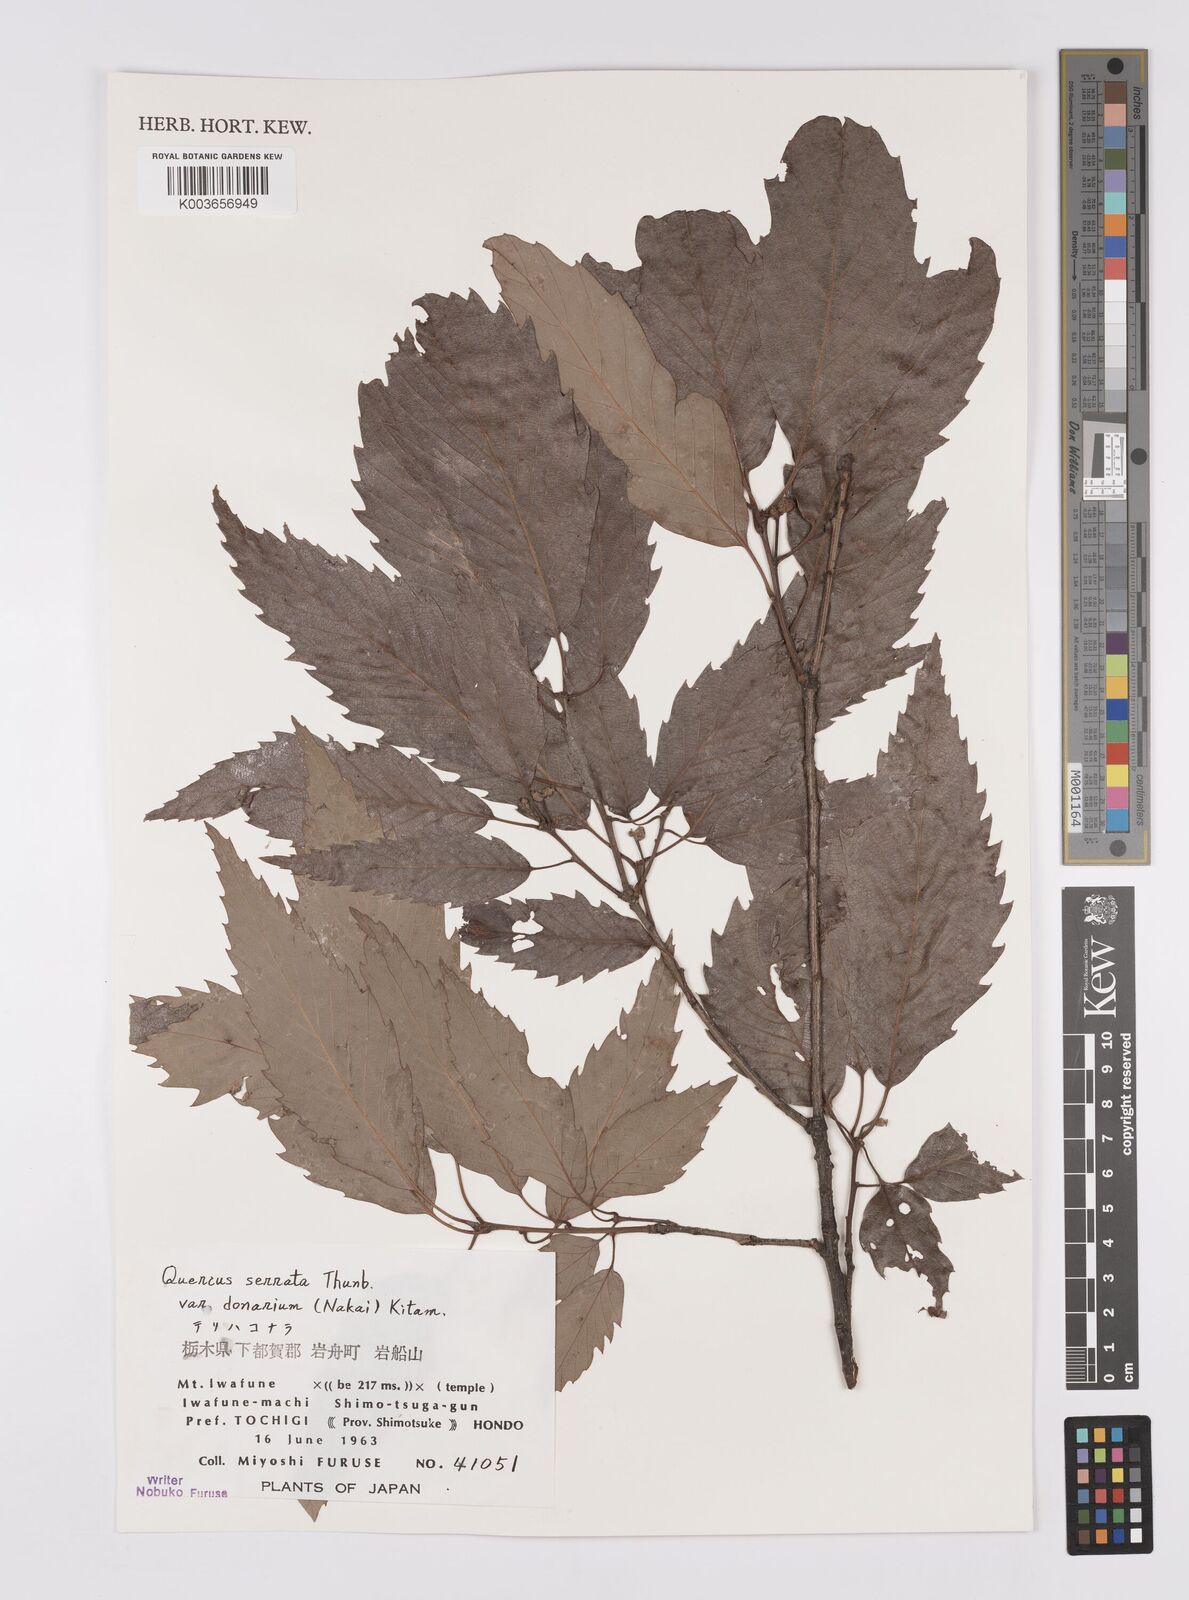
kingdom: Plantae
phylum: Tracheophyta
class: Magnoliopsida
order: Fagales
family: Fagaceae
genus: Quercus
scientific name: Quercus serrata
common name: Bao li
